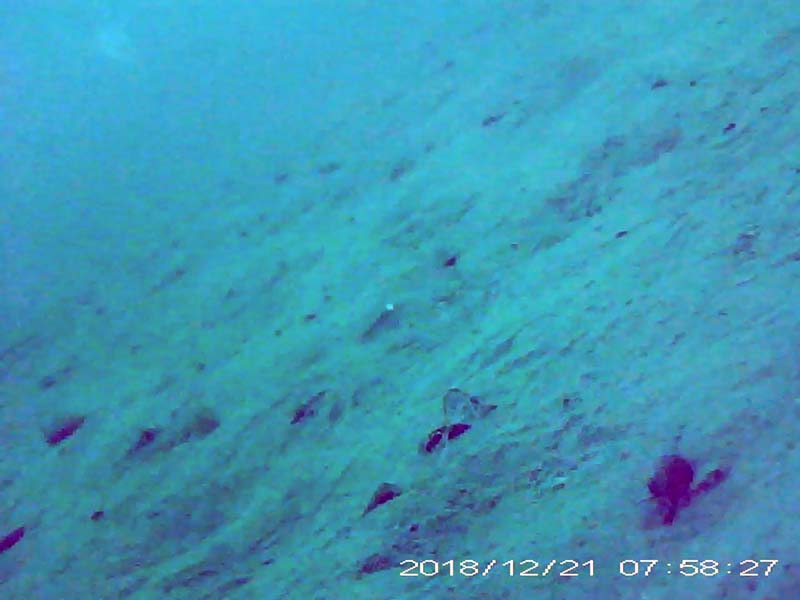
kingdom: Animalia
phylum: Chordata
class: Aves
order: Anseriformes
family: Anatidae
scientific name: Anatidae
